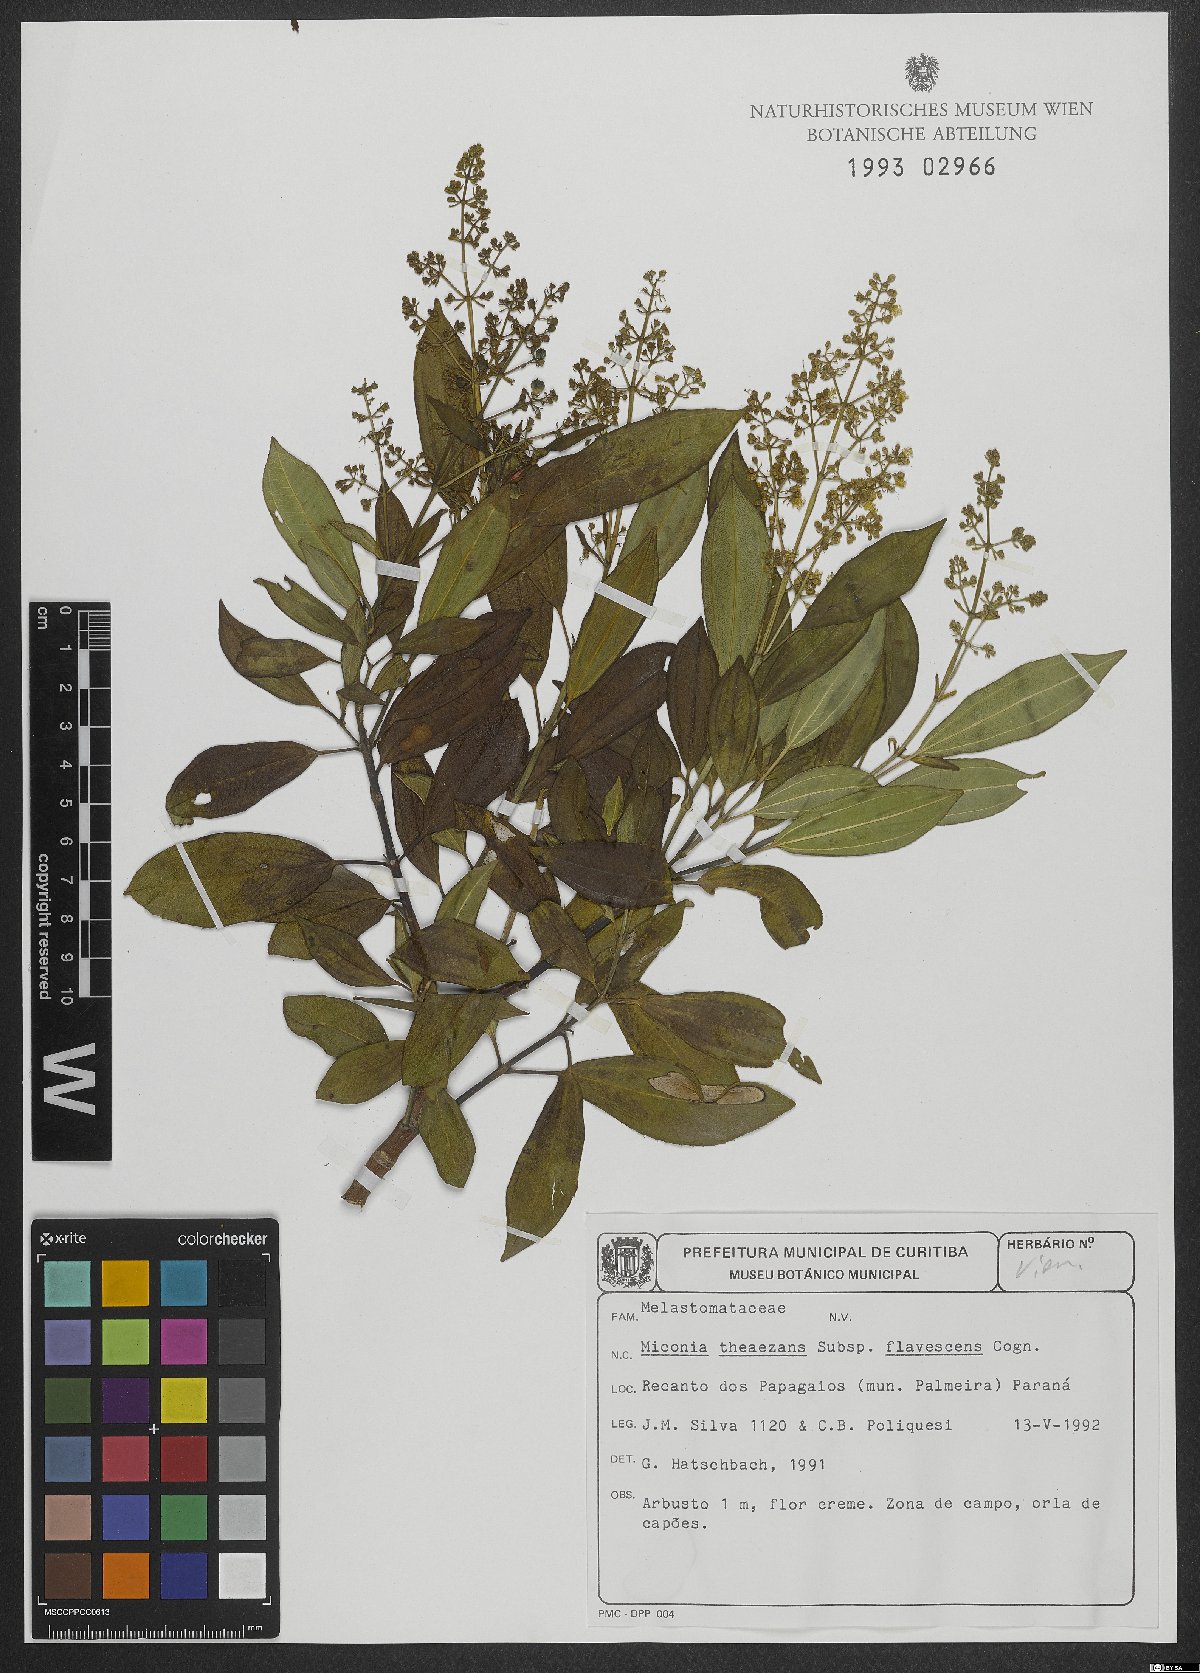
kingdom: Plantae
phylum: Tracheophyta
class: Magnoliopsida
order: Myrtales
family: Melastomataceae
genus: Miconia
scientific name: Miconia theizans
